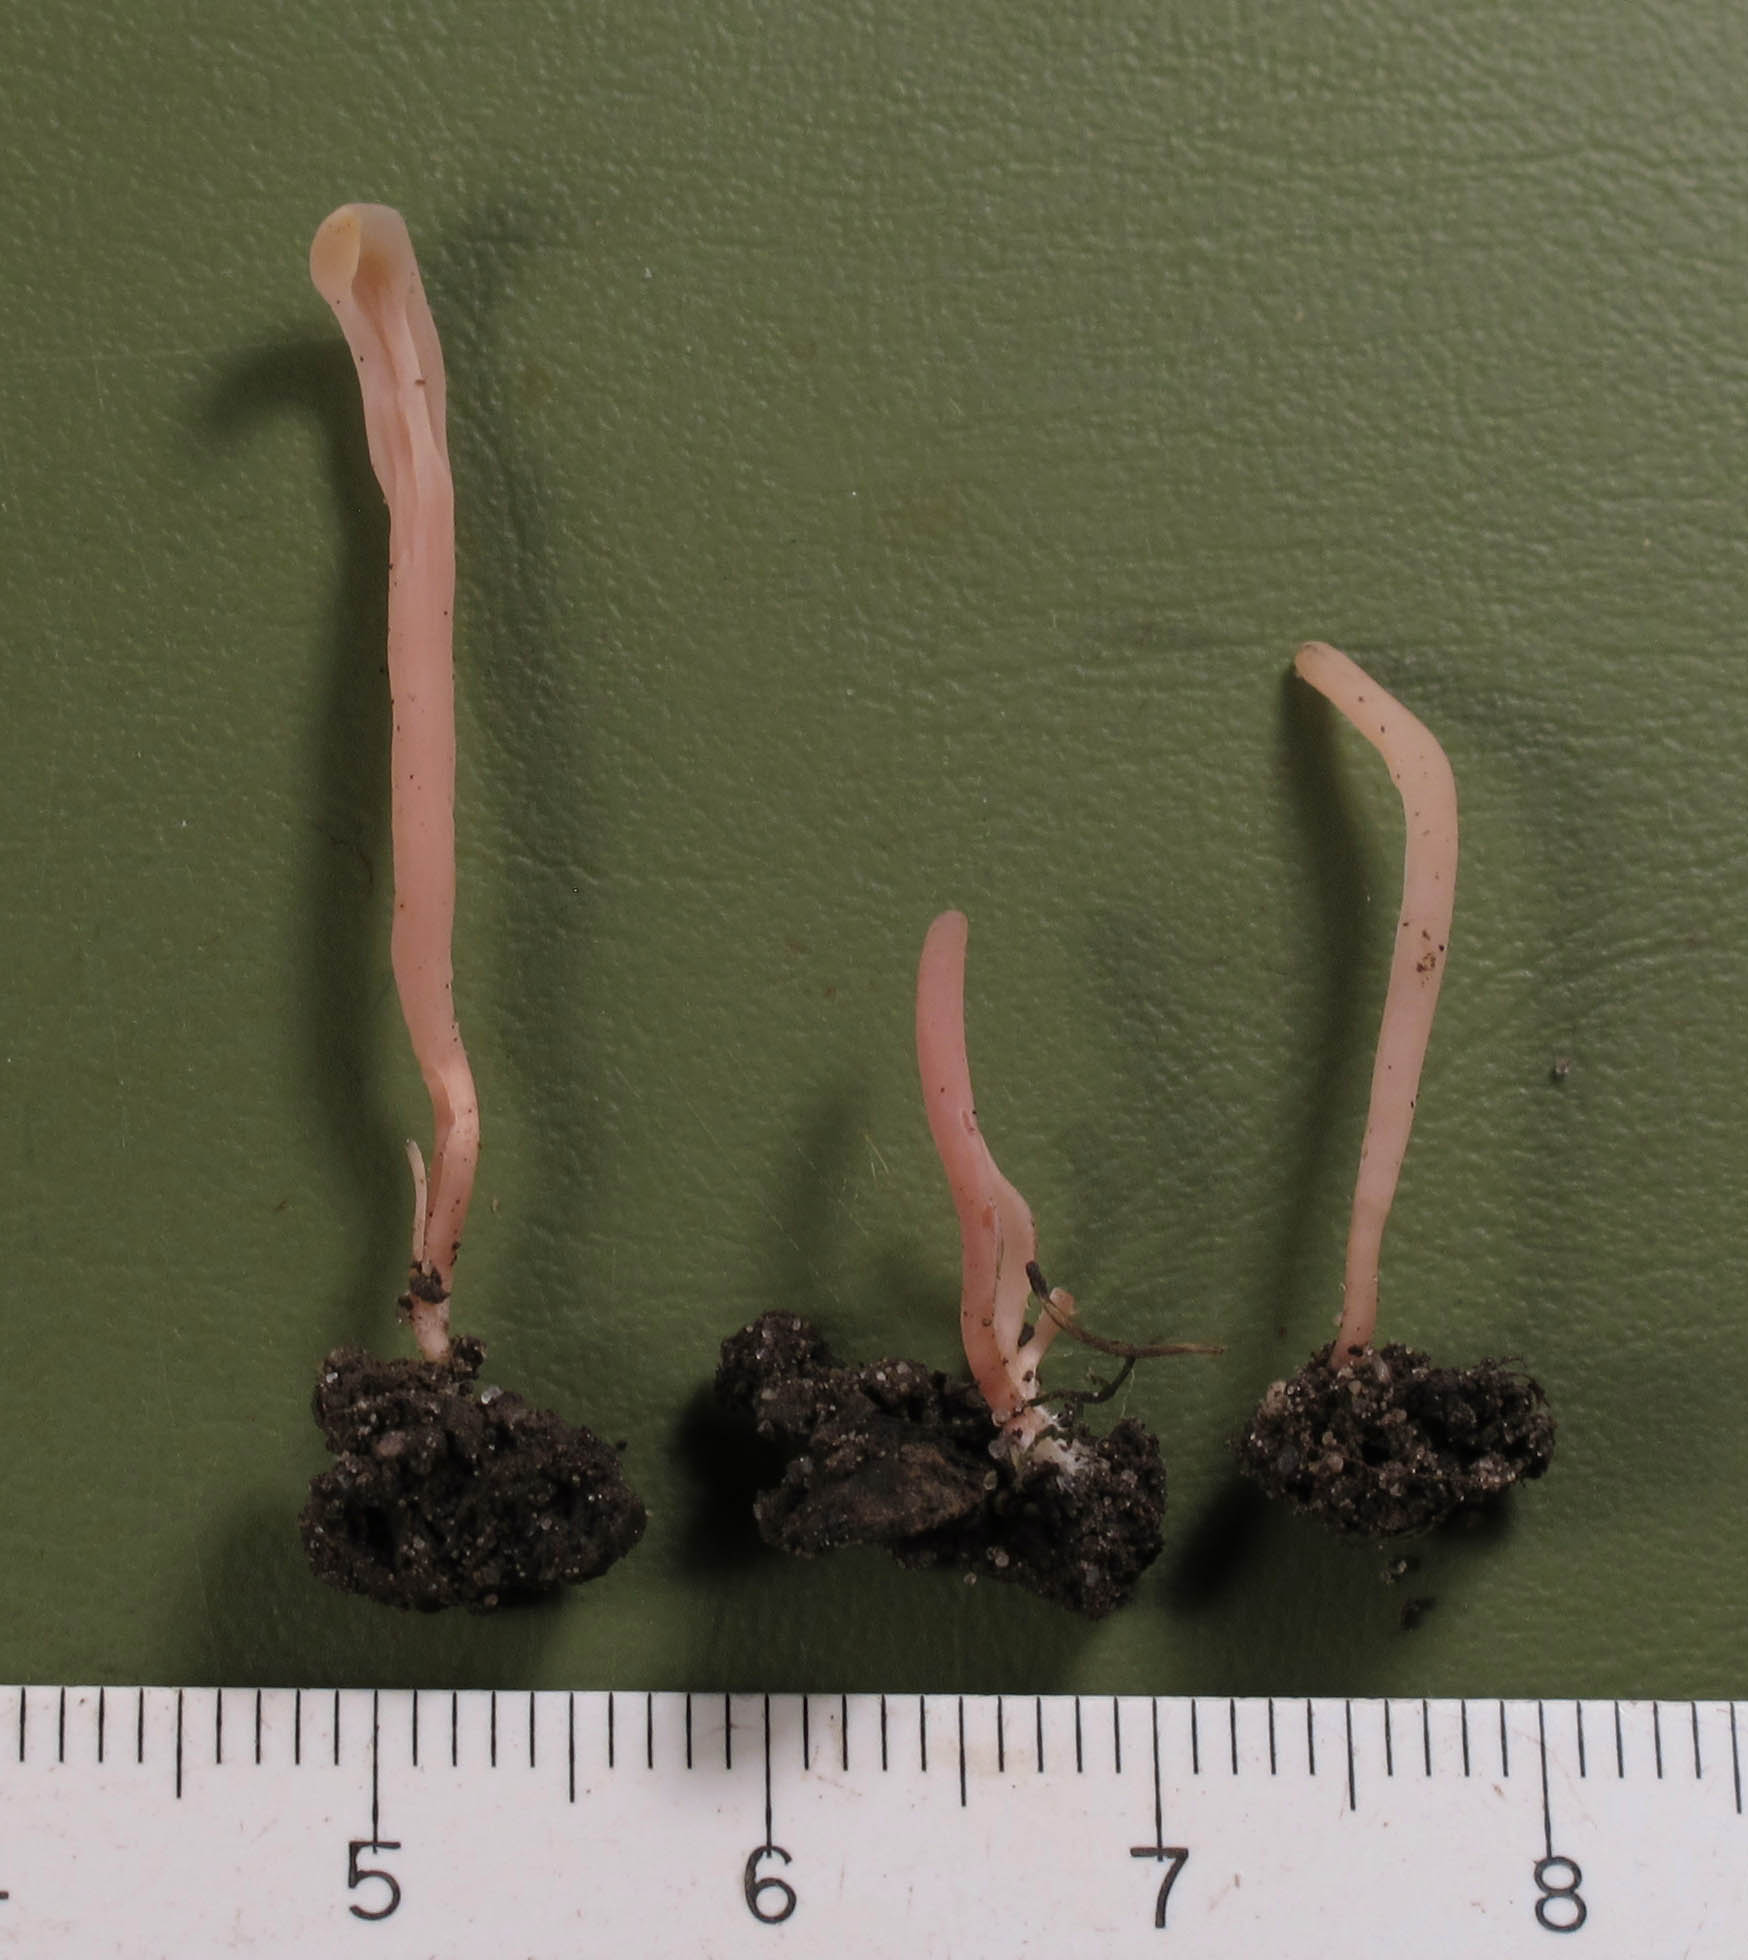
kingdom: Fungi
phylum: Basidiomycota
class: Agaricomycetes
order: Agaricales
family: Clavariaceae
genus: Clavaria
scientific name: Clavaria incarnata
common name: kødrød køllesvamp
